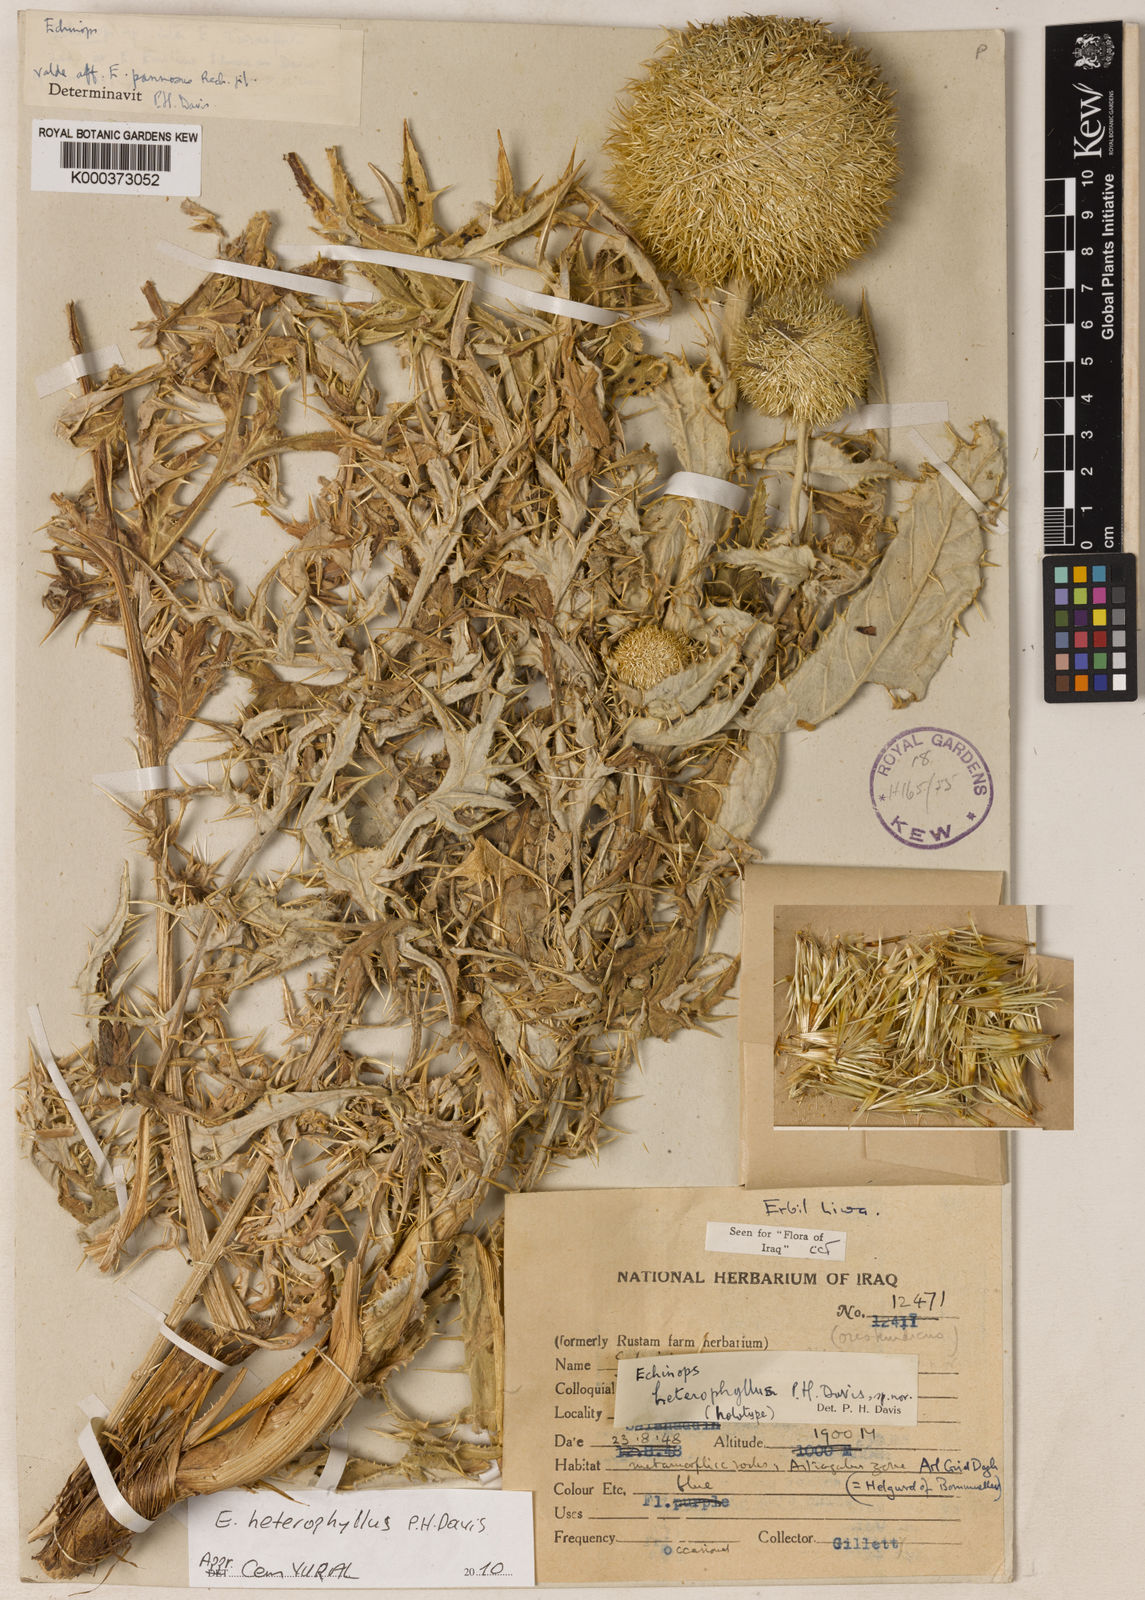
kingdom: Plantae
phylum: Tracheophyta
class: Magnoliopsida
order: Asterales
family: Asteraceae
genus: Echinops
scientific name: Echinops heterophyllus
